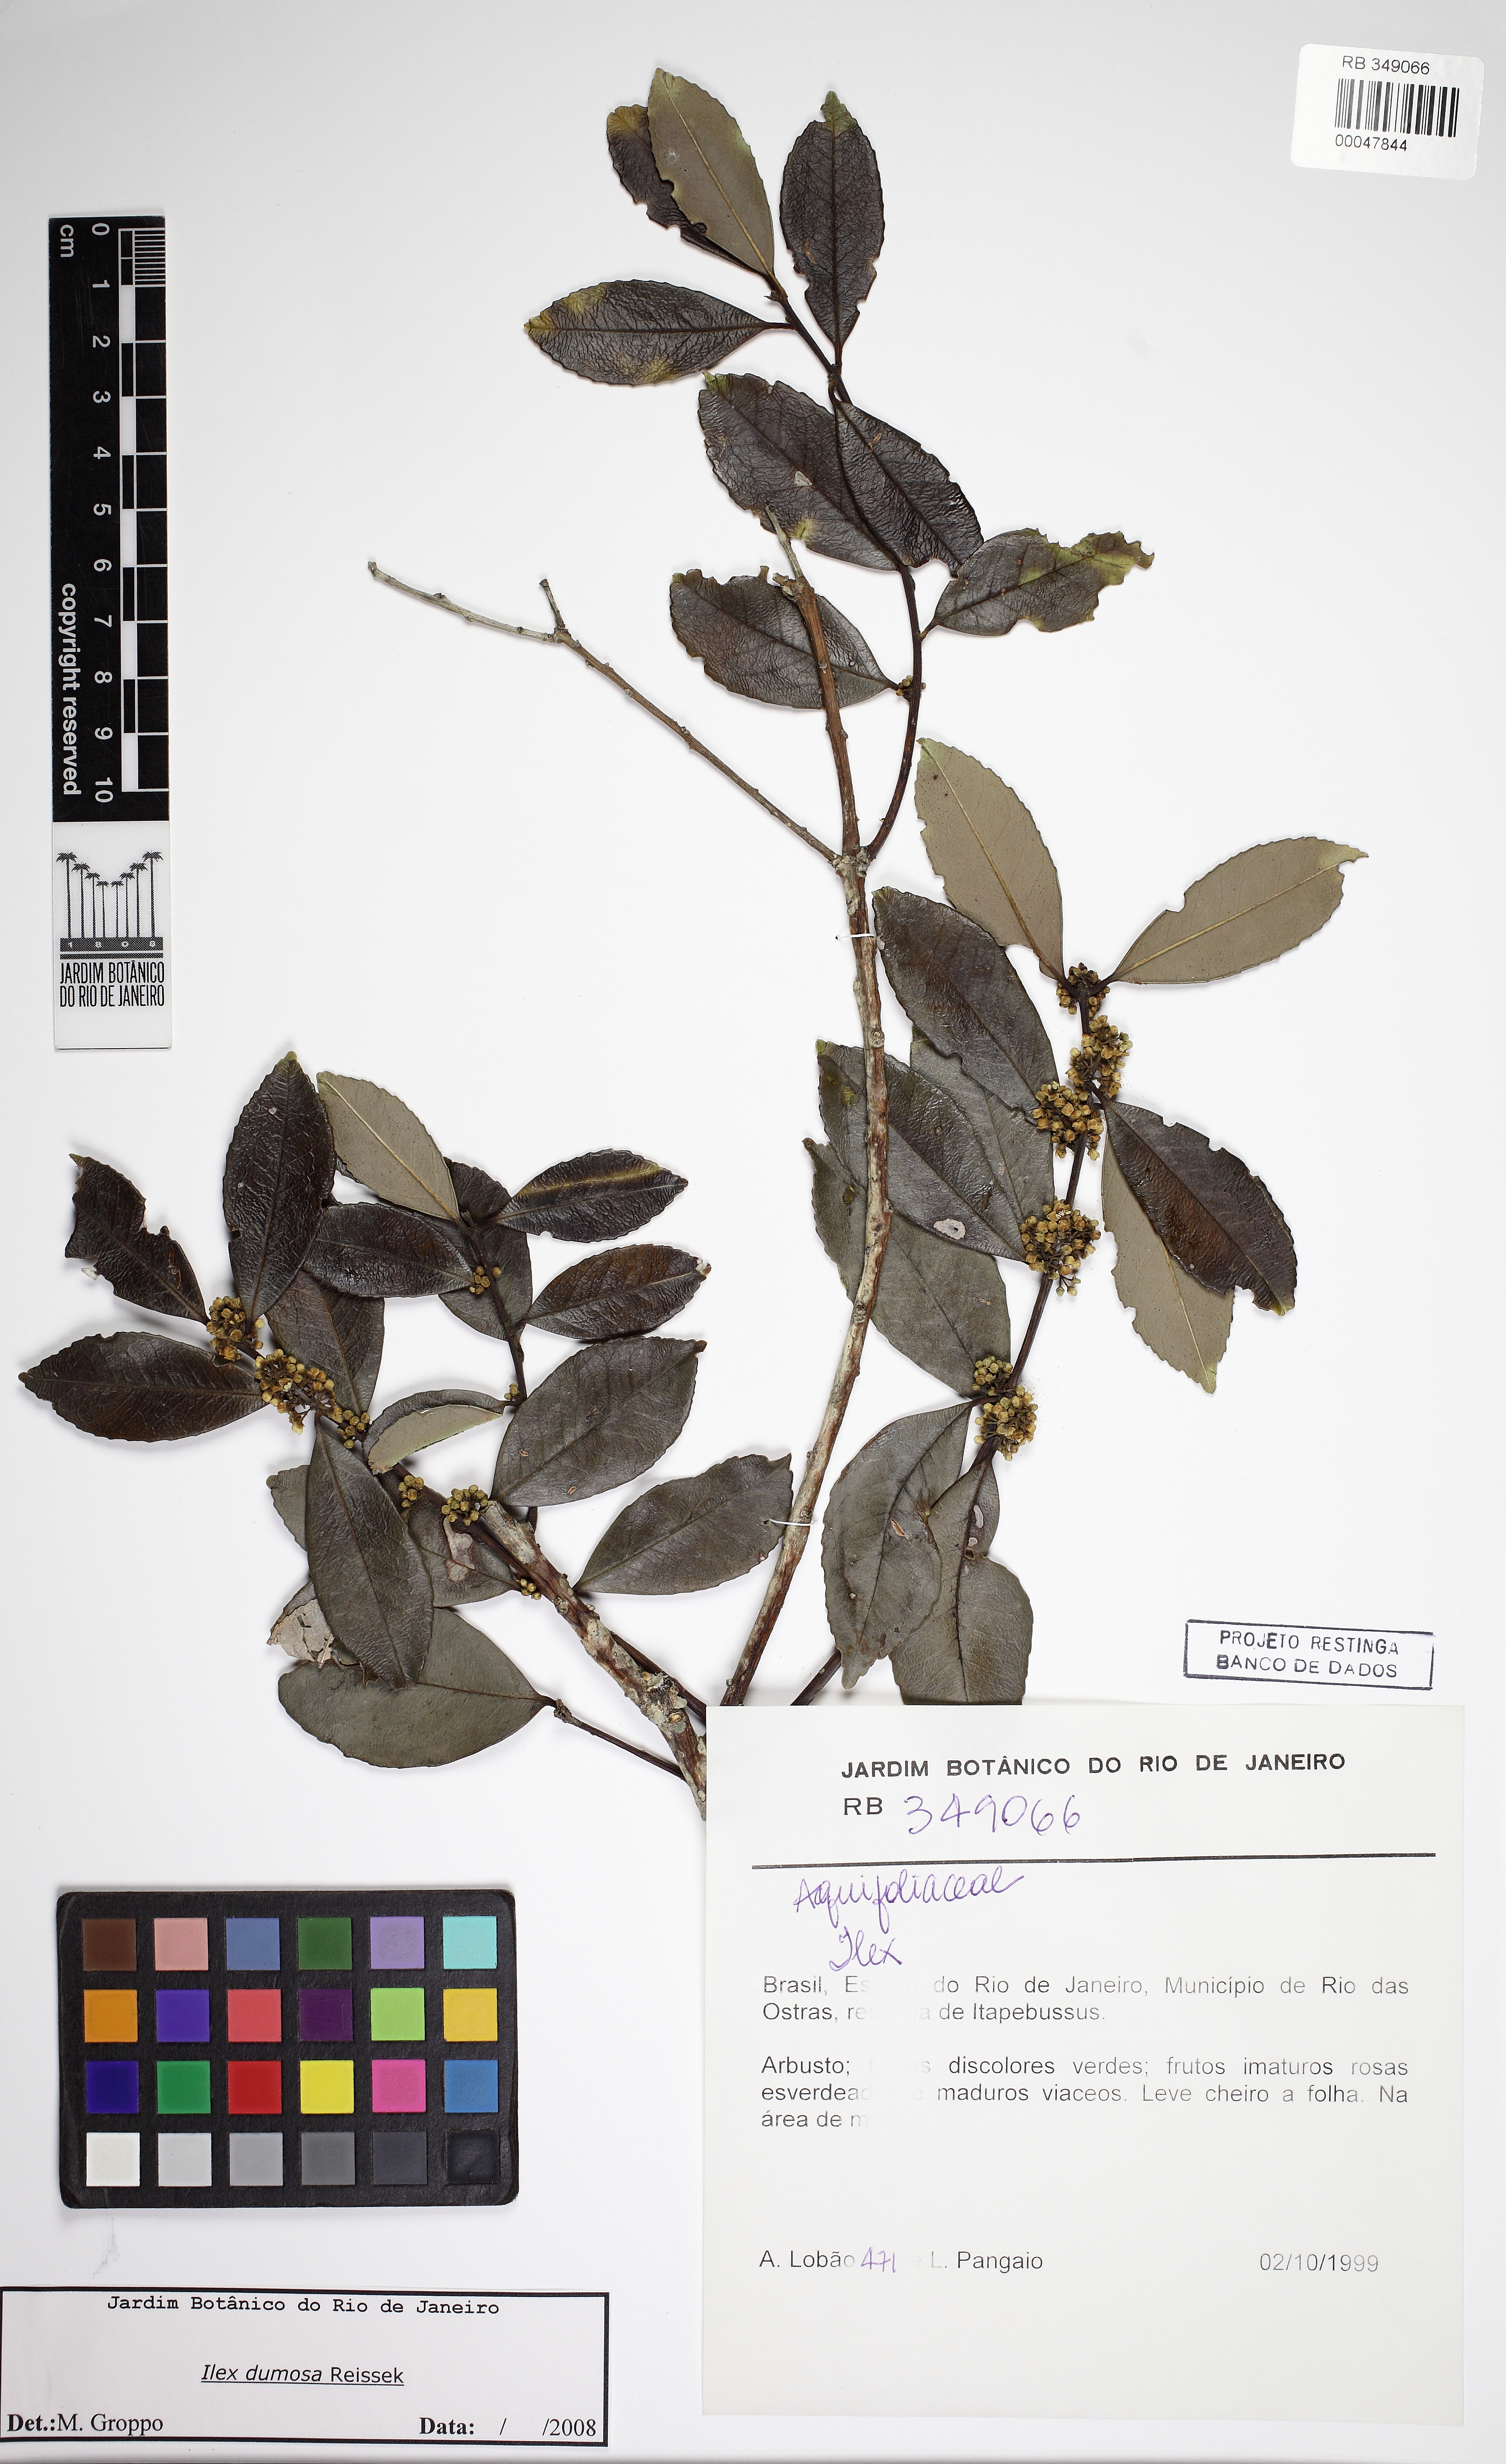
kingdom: Plantae
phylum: Tracheophyta
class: Magnoliopsida
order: Aquifoliales
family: Aquifoliaceae
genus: Ilex
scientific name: Ilex dumosa
